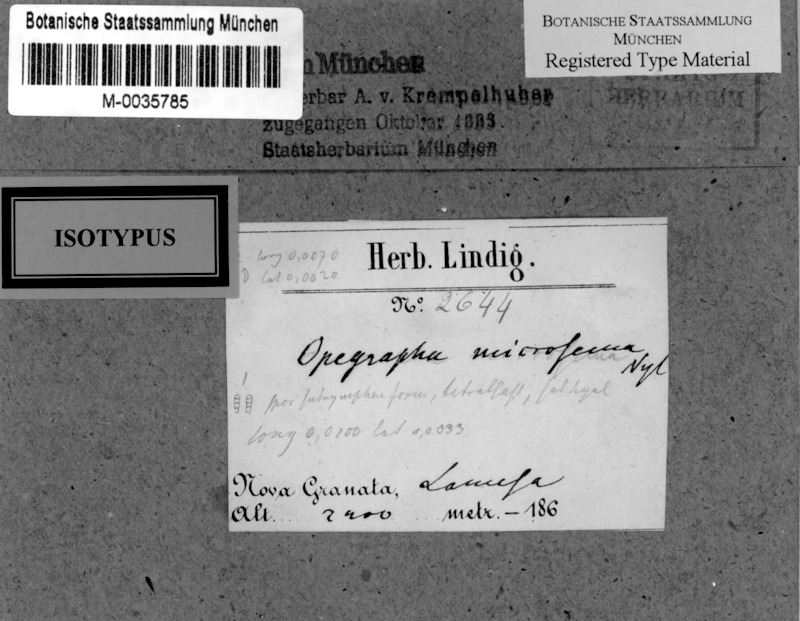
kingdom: Fungi
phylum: Ascomycota
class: Arthoniomycetes
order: Arthoniales
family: Opegraphaceae
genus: Opegrapha
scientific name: Opegrapha microsema
